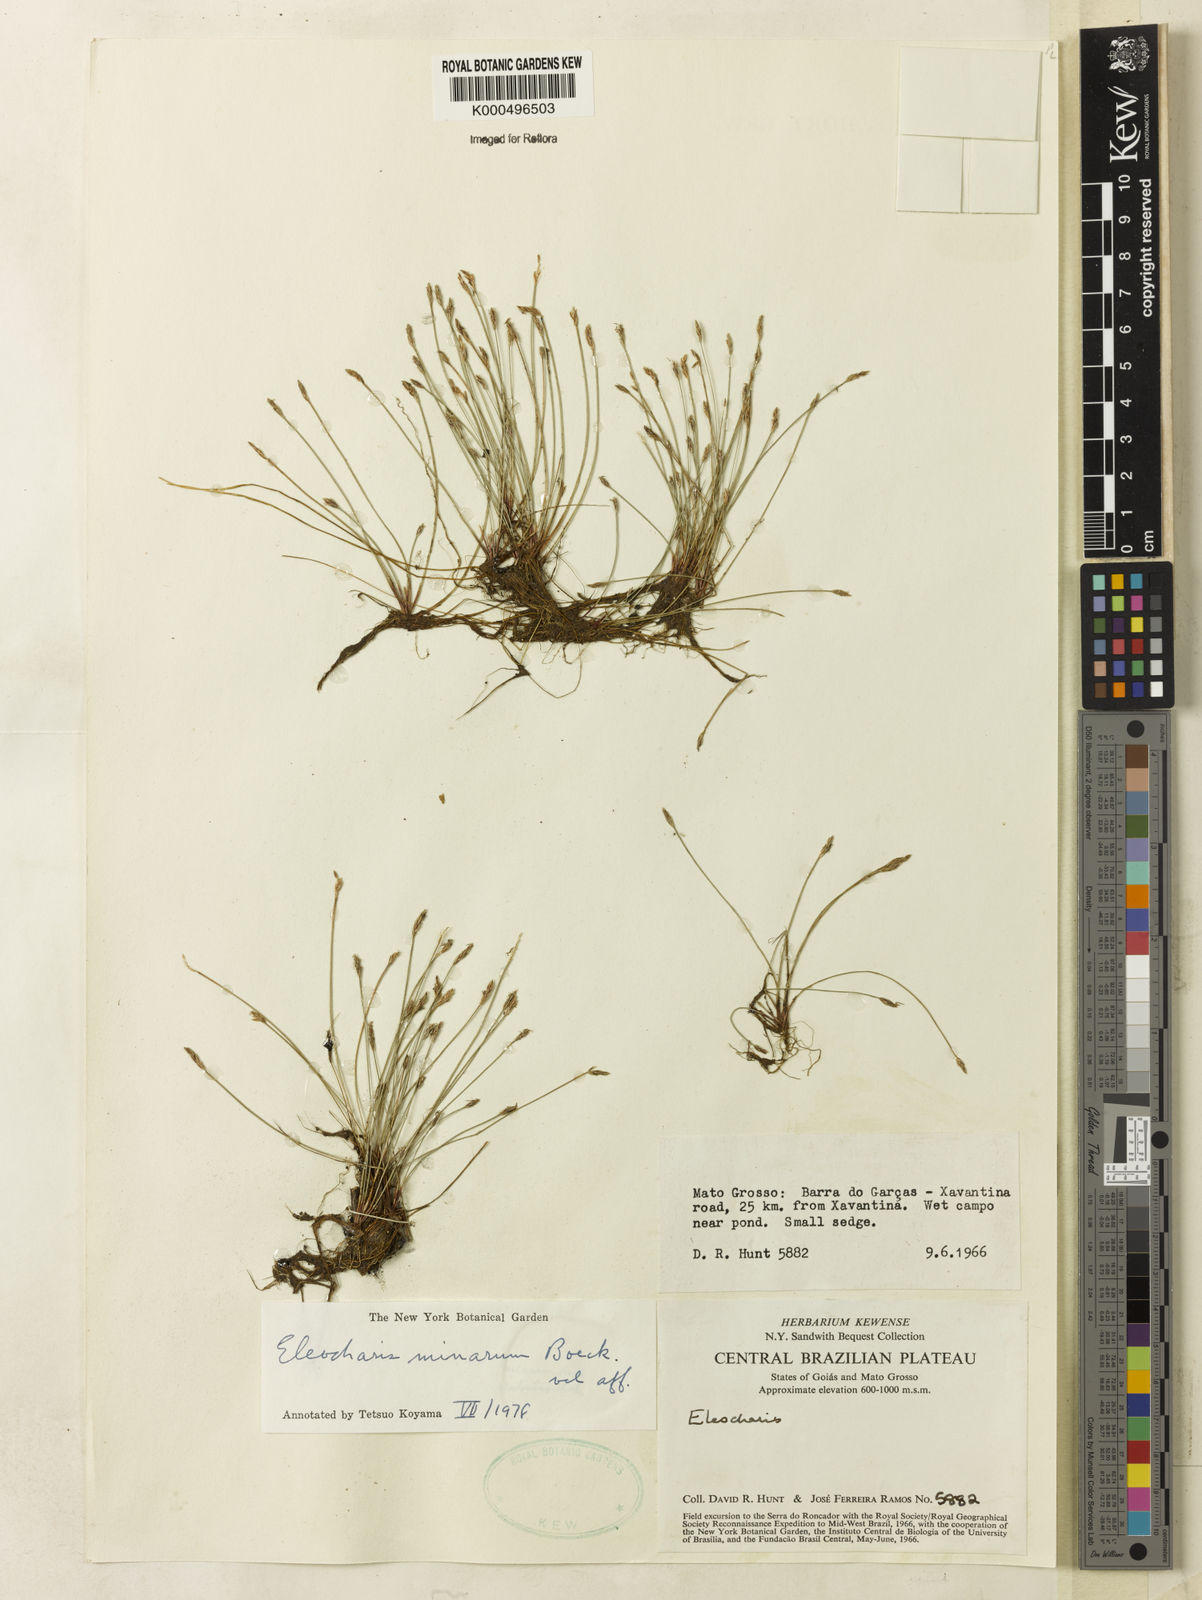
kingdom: Plantae
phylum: Tracheophyta
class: Liliopsida
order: Poales
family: Cyperaceae
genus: Eleocharis
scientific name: Eleocharis minarum
